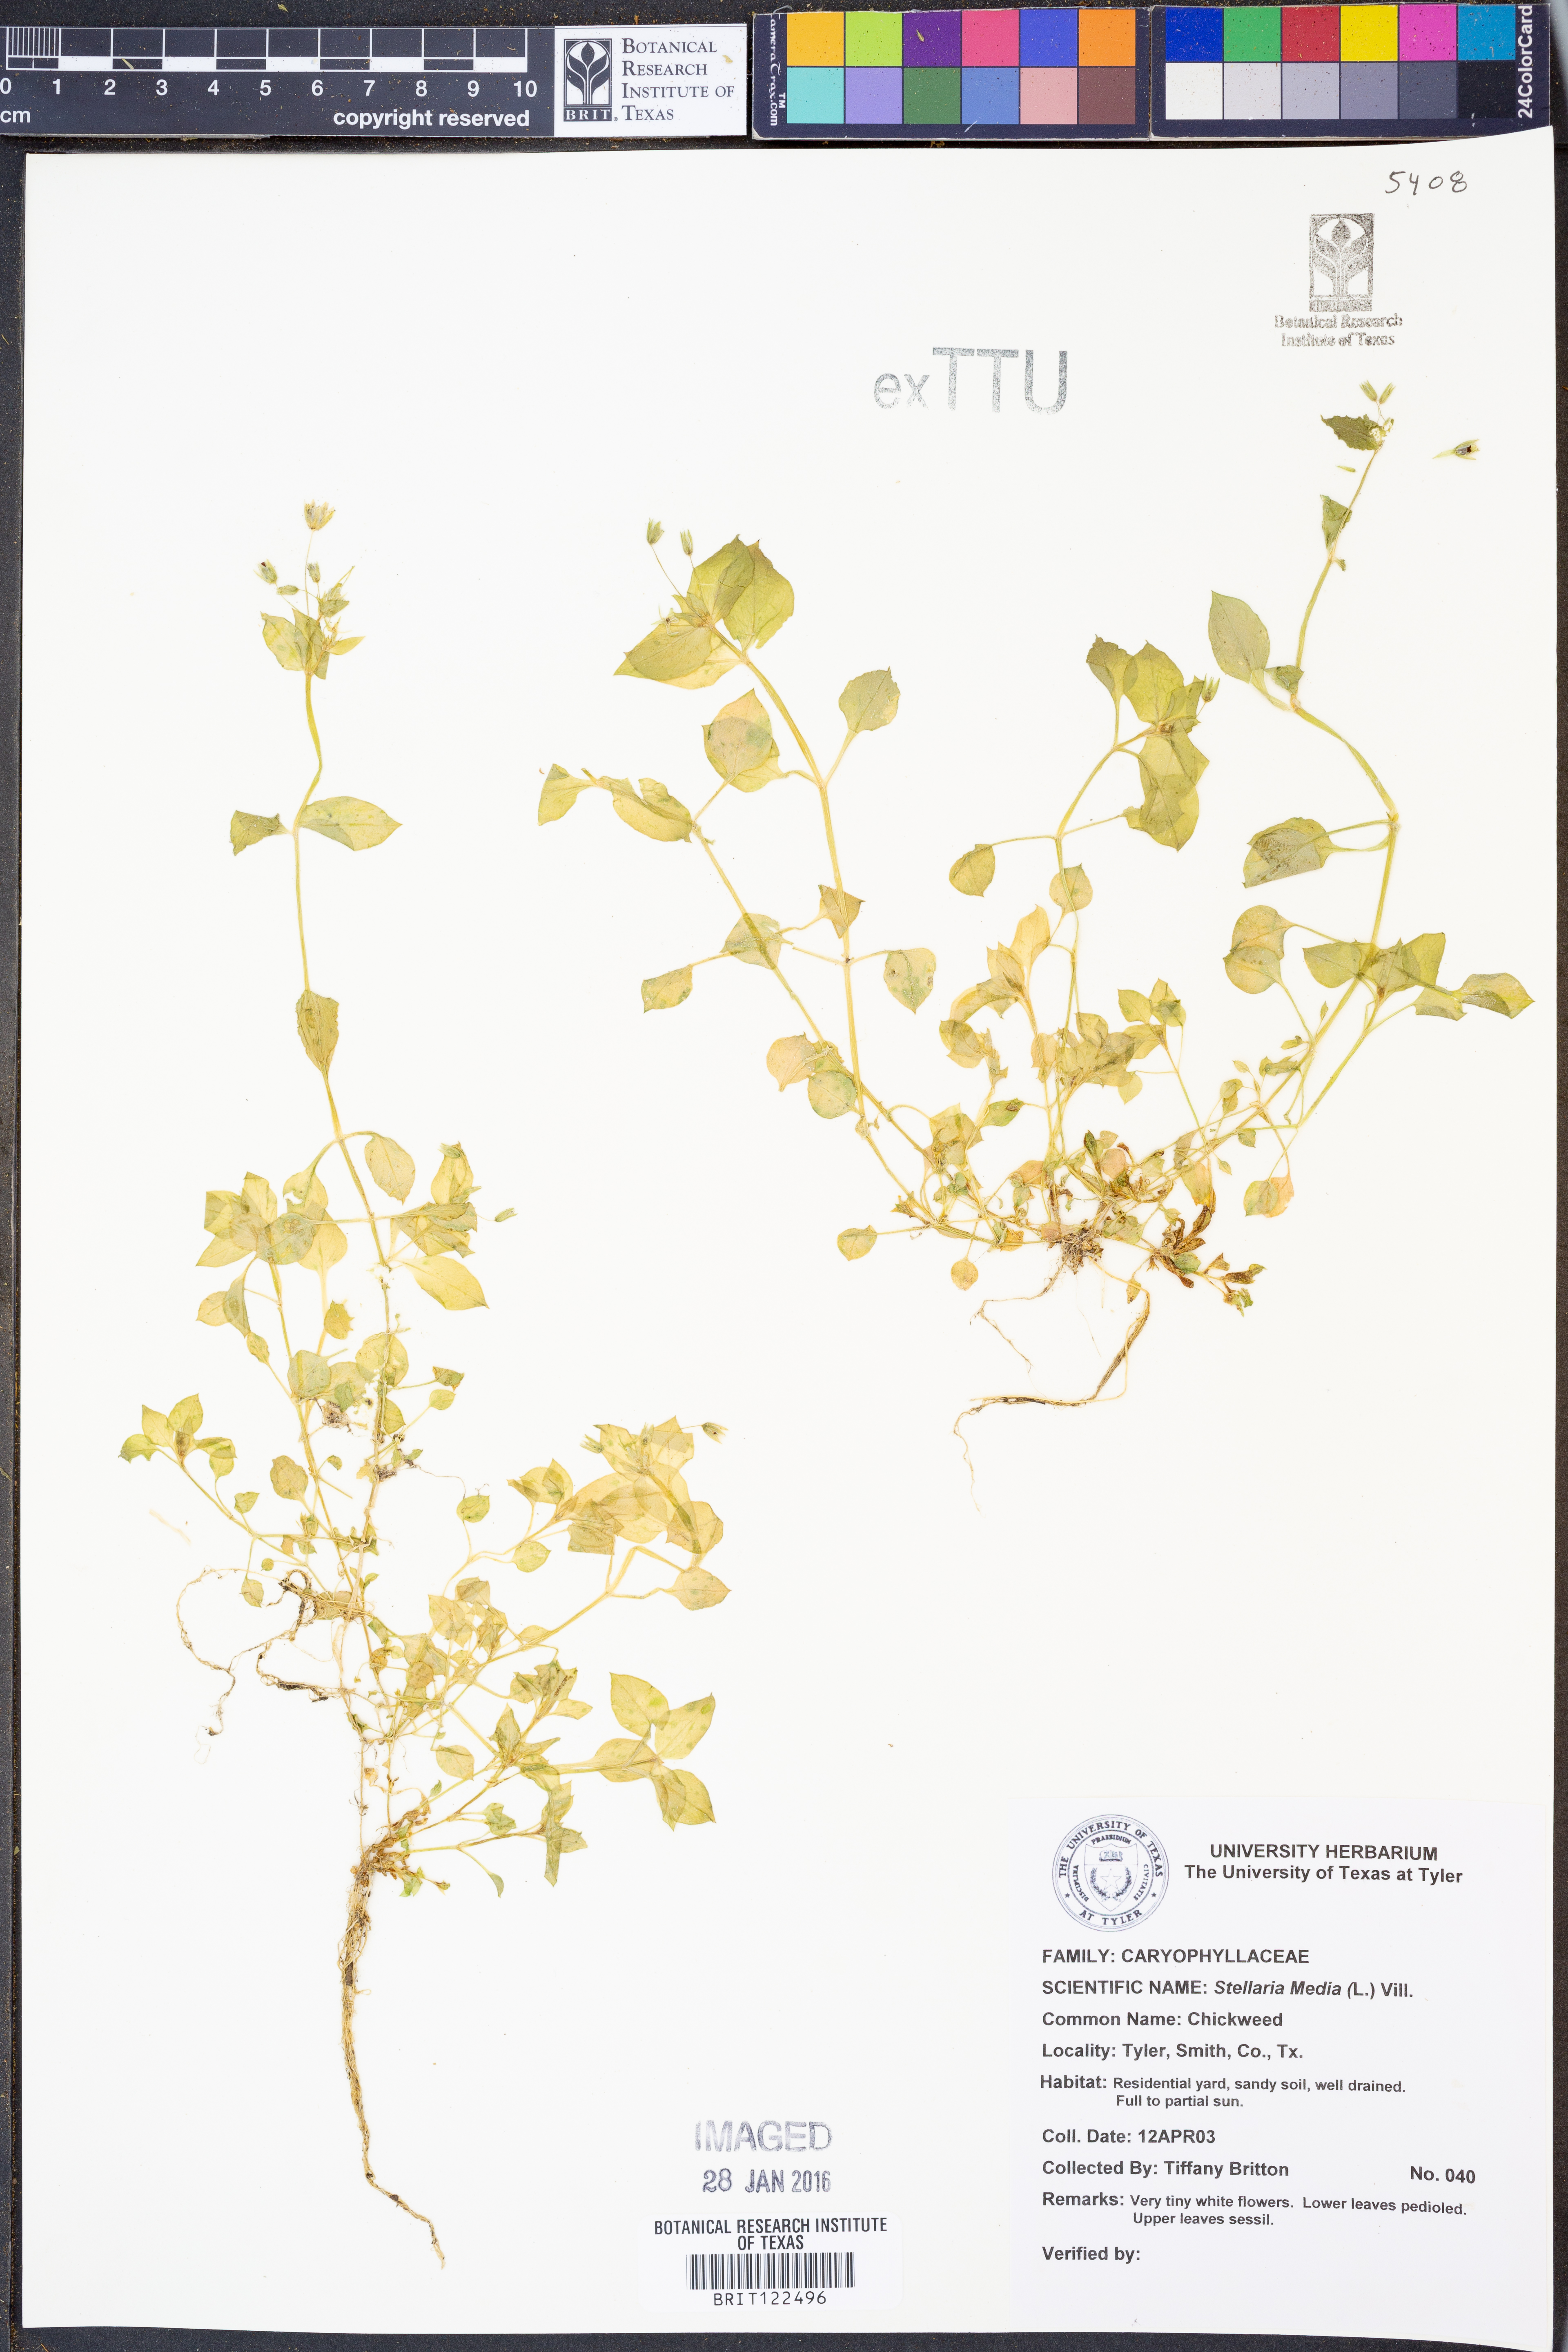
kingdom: Plantae
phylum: Tracheophyta
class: Magnoliopsida
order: Caryophyllales
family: Caryophyllaceae
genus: Stellaria
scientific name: Stellaria media
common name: Common chickweed
